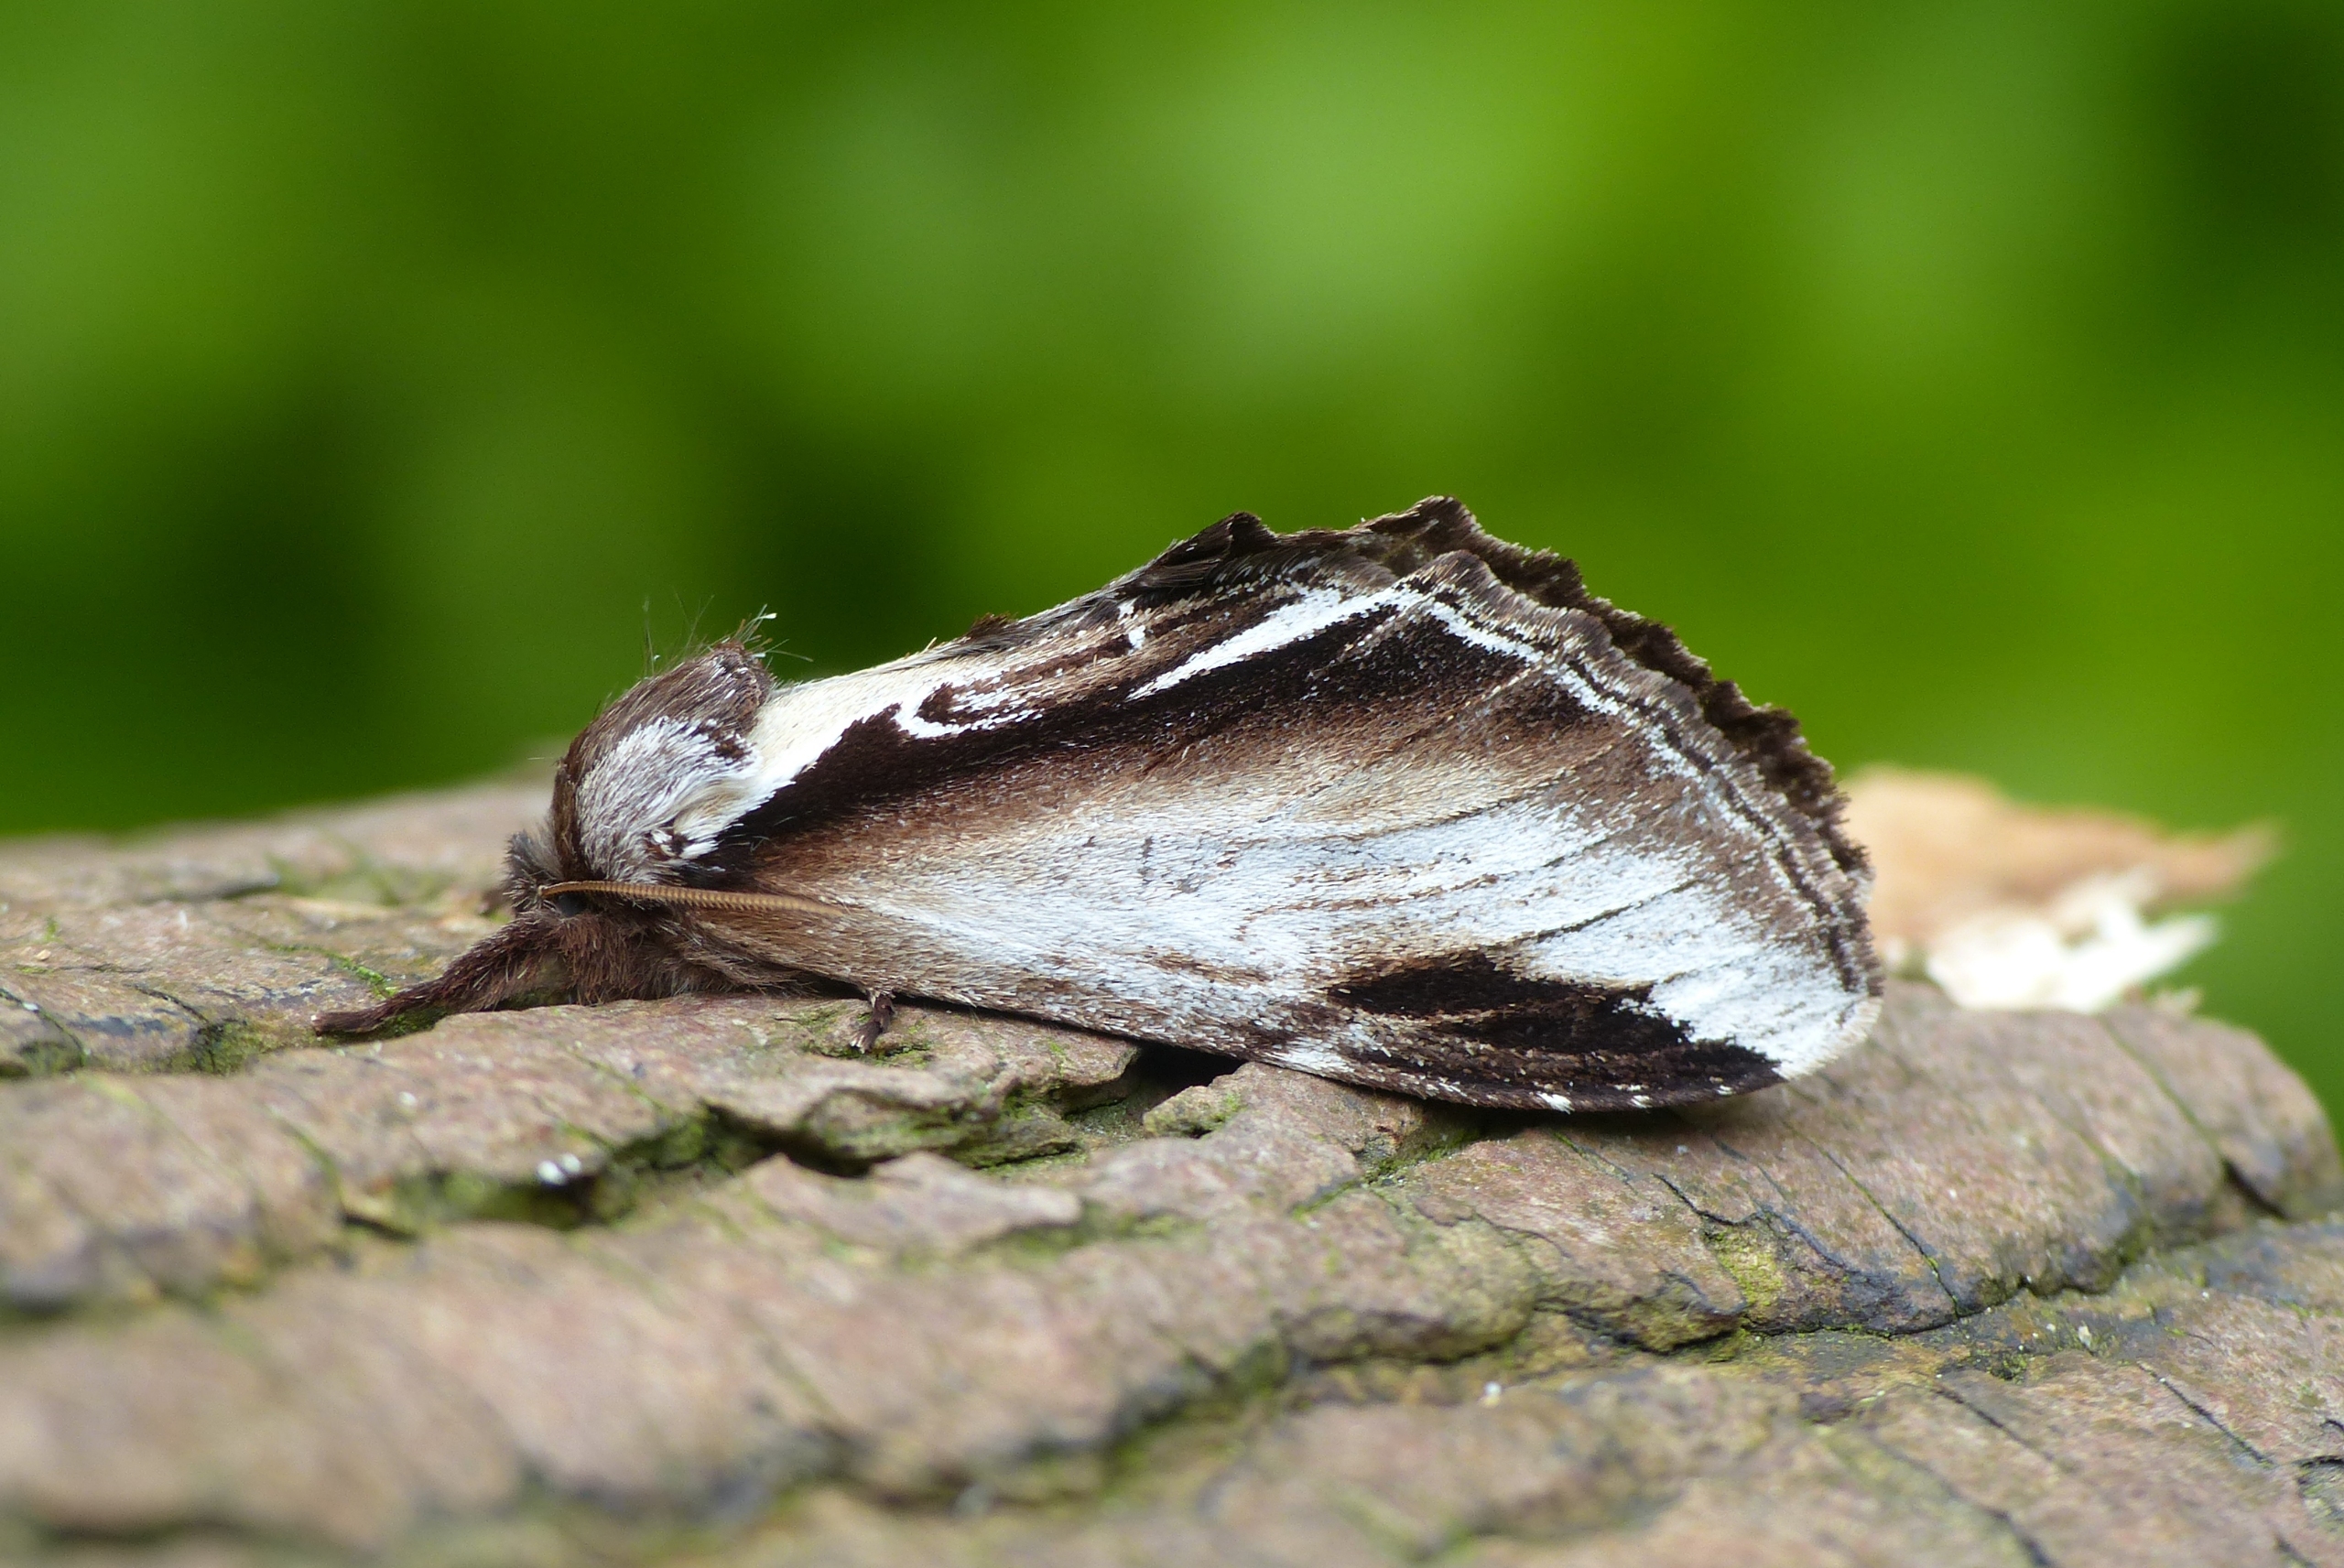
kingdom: Animalia
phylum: Arthropoda
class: Insecta
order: Lepidoptera
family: Notodontidae
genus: Pheosia
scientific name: Pheosia gnoma
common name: Birkeporcelænsspinder
